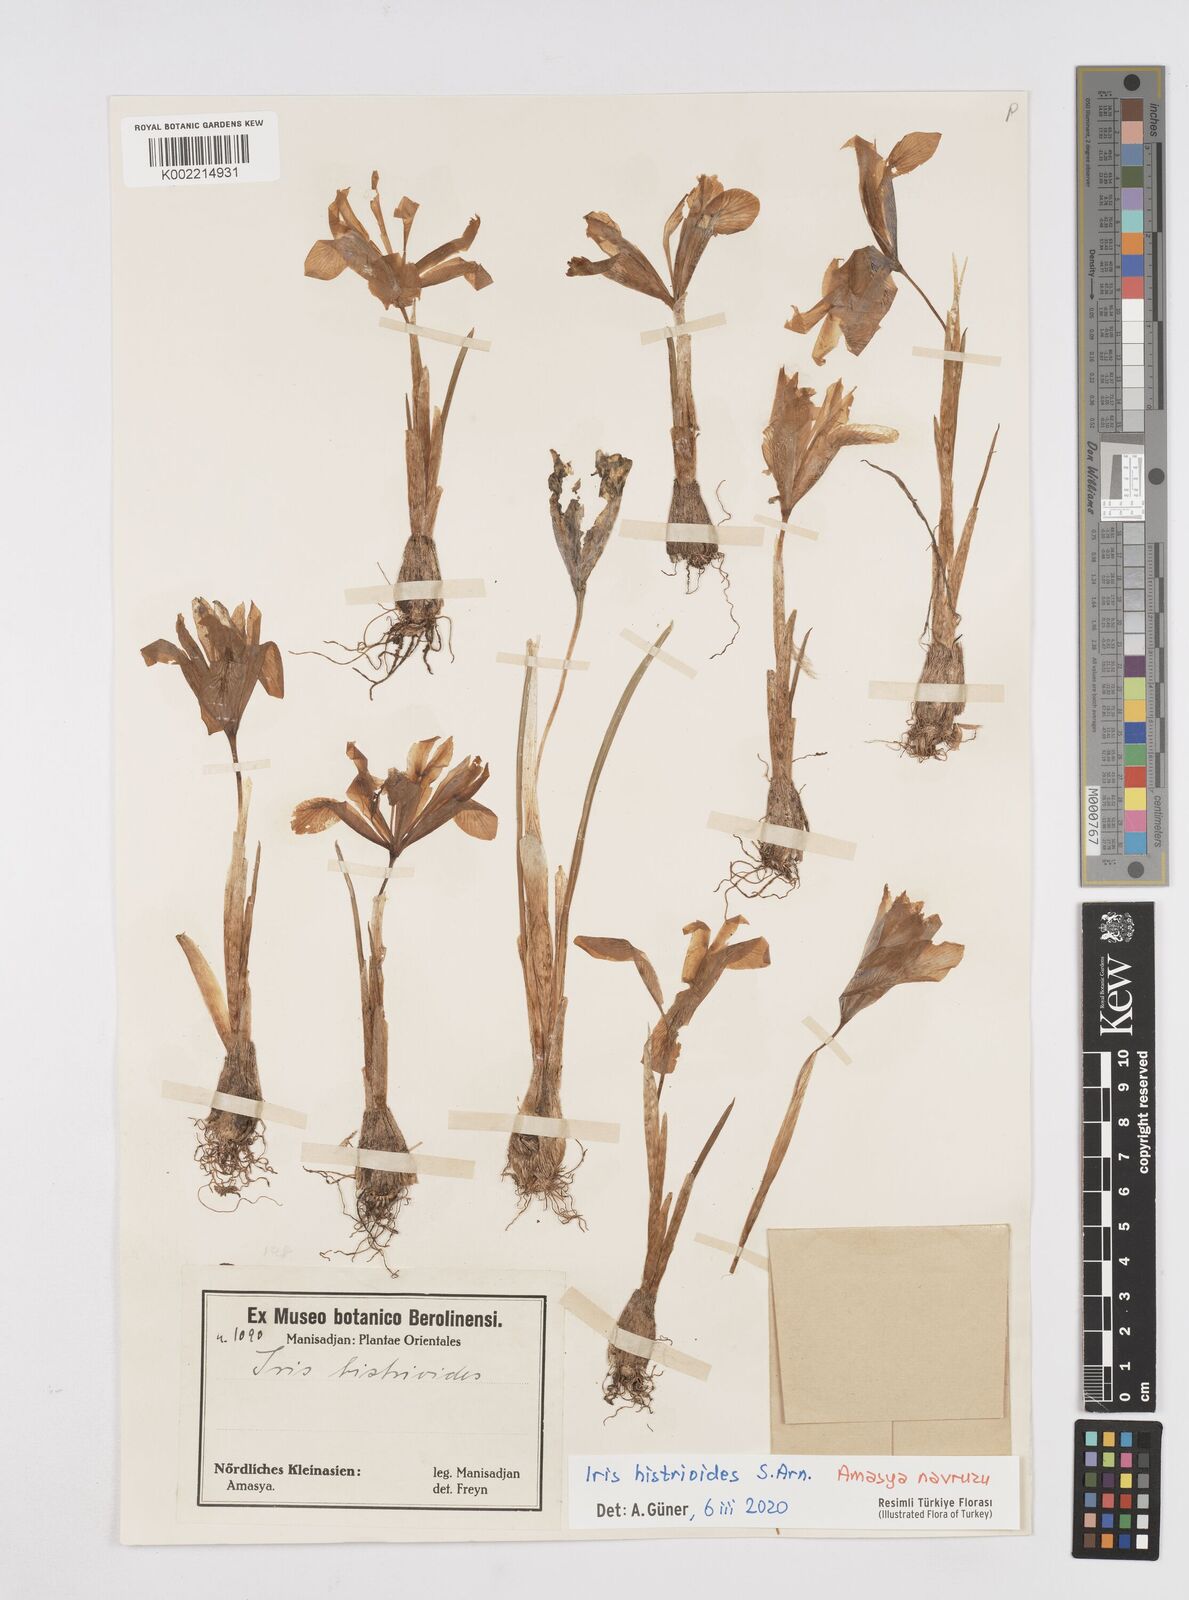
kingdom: Plantae
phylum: Tracheophyta
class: Liliopsida
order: Asparagales
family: Iridaceae
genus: Iris
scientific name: Iris histrioides
